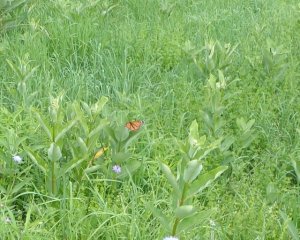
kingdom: Animalia
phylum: Arthropoda
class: Insecta
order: Lepidoptera
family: Nymphalidae
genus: Danaus
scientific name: Danaus plexippus
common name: Monarch
